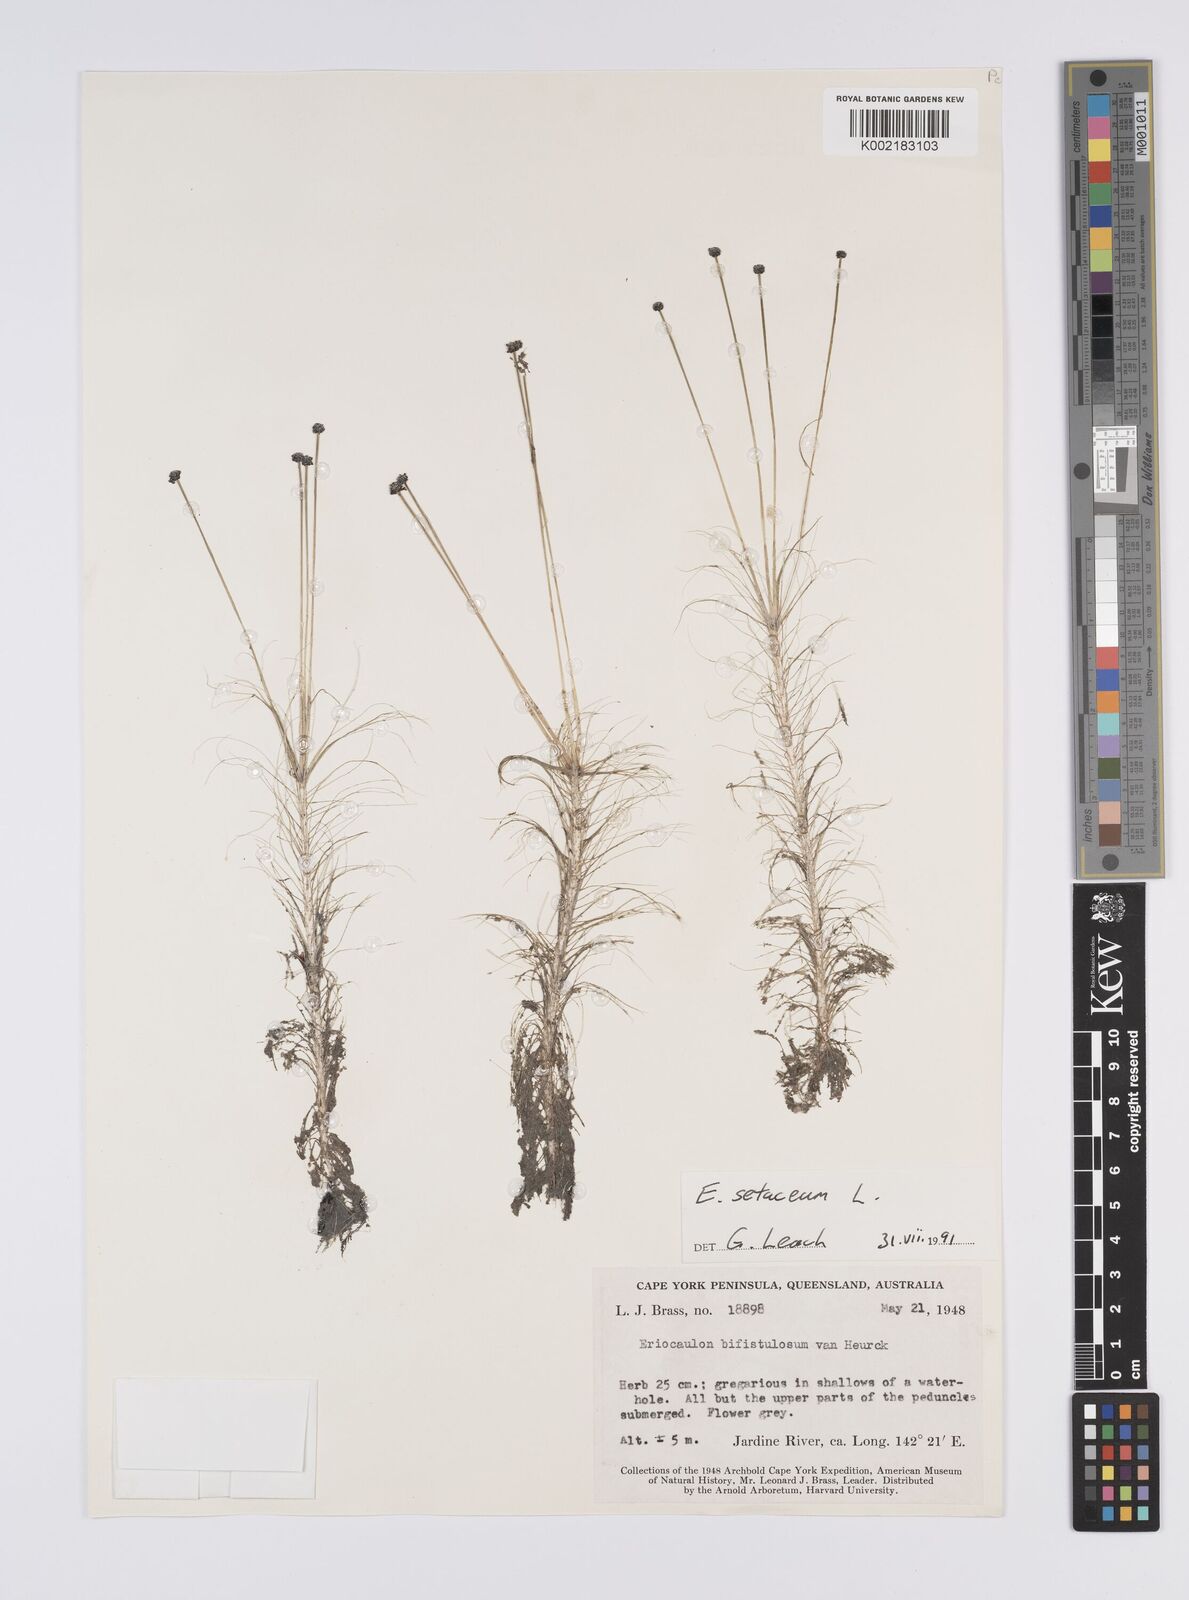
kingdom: Plantae
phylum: Tracheophyta
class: Liliopsida
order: Poales
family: Eriocaulaceae
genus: Eriocaulon
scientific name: Eriocaulon setaceum
